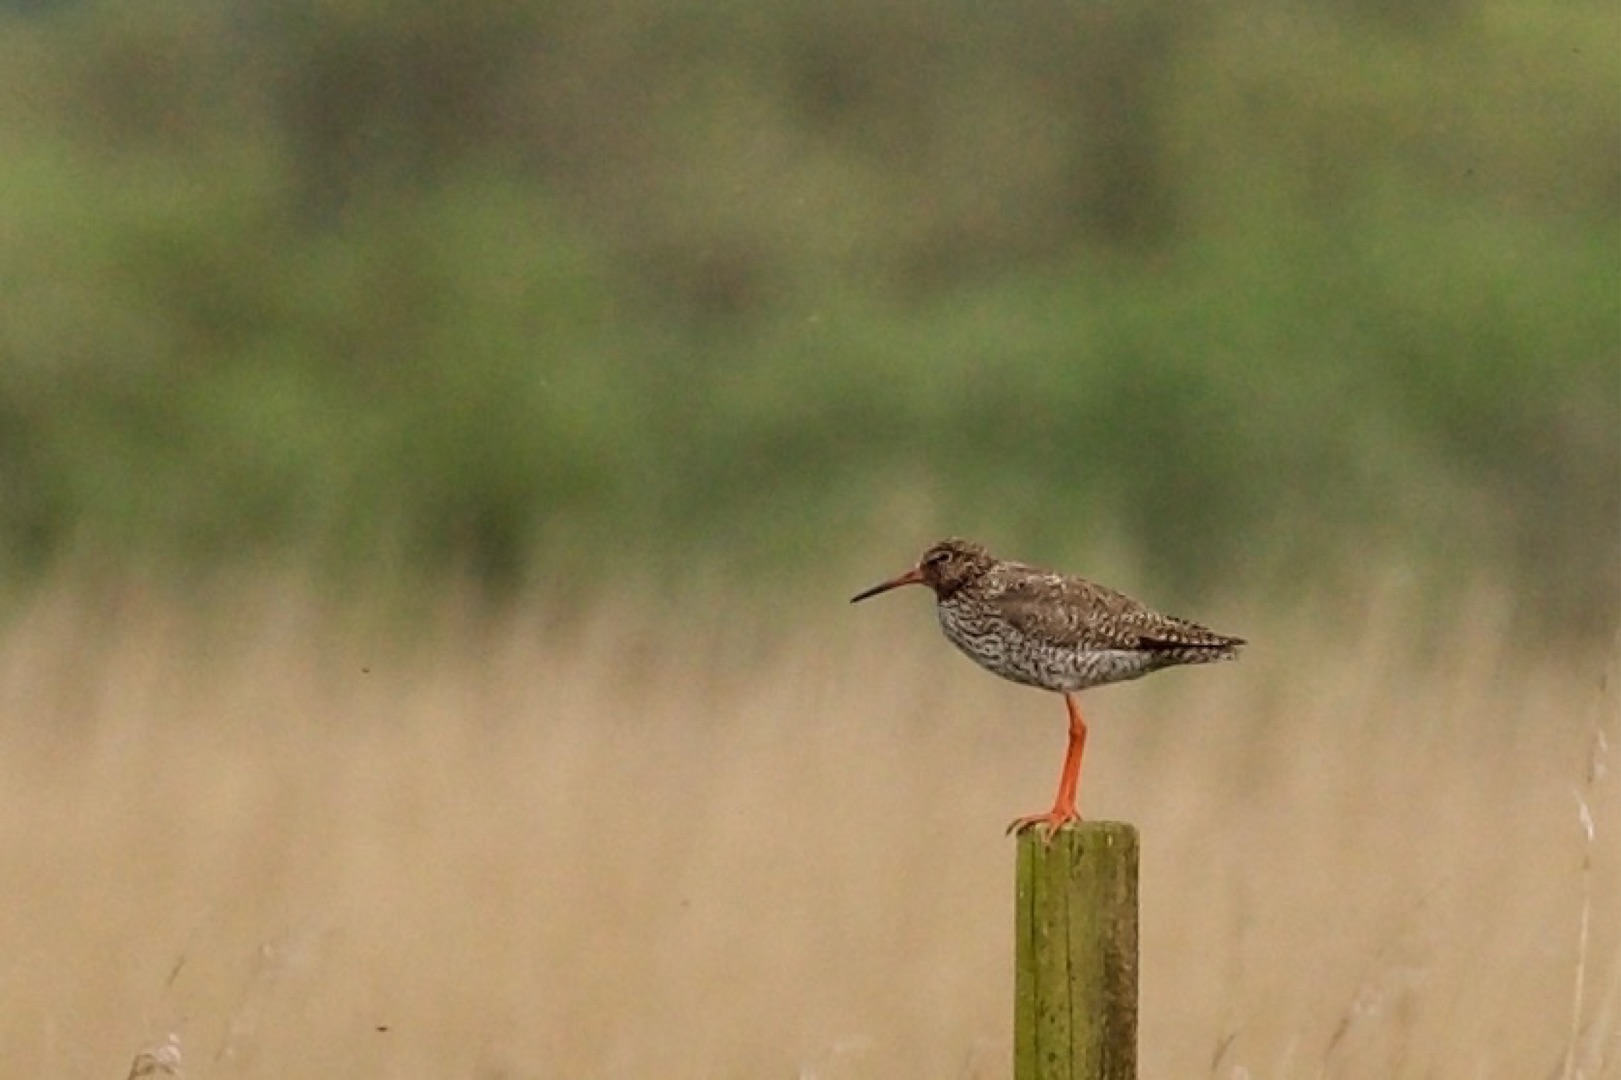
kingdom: Animalia
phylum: Chordata
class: Aves
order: Charadriiformes
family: Scolopacidae
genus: Tringa
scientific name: Tringa totanus
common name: Rødben
